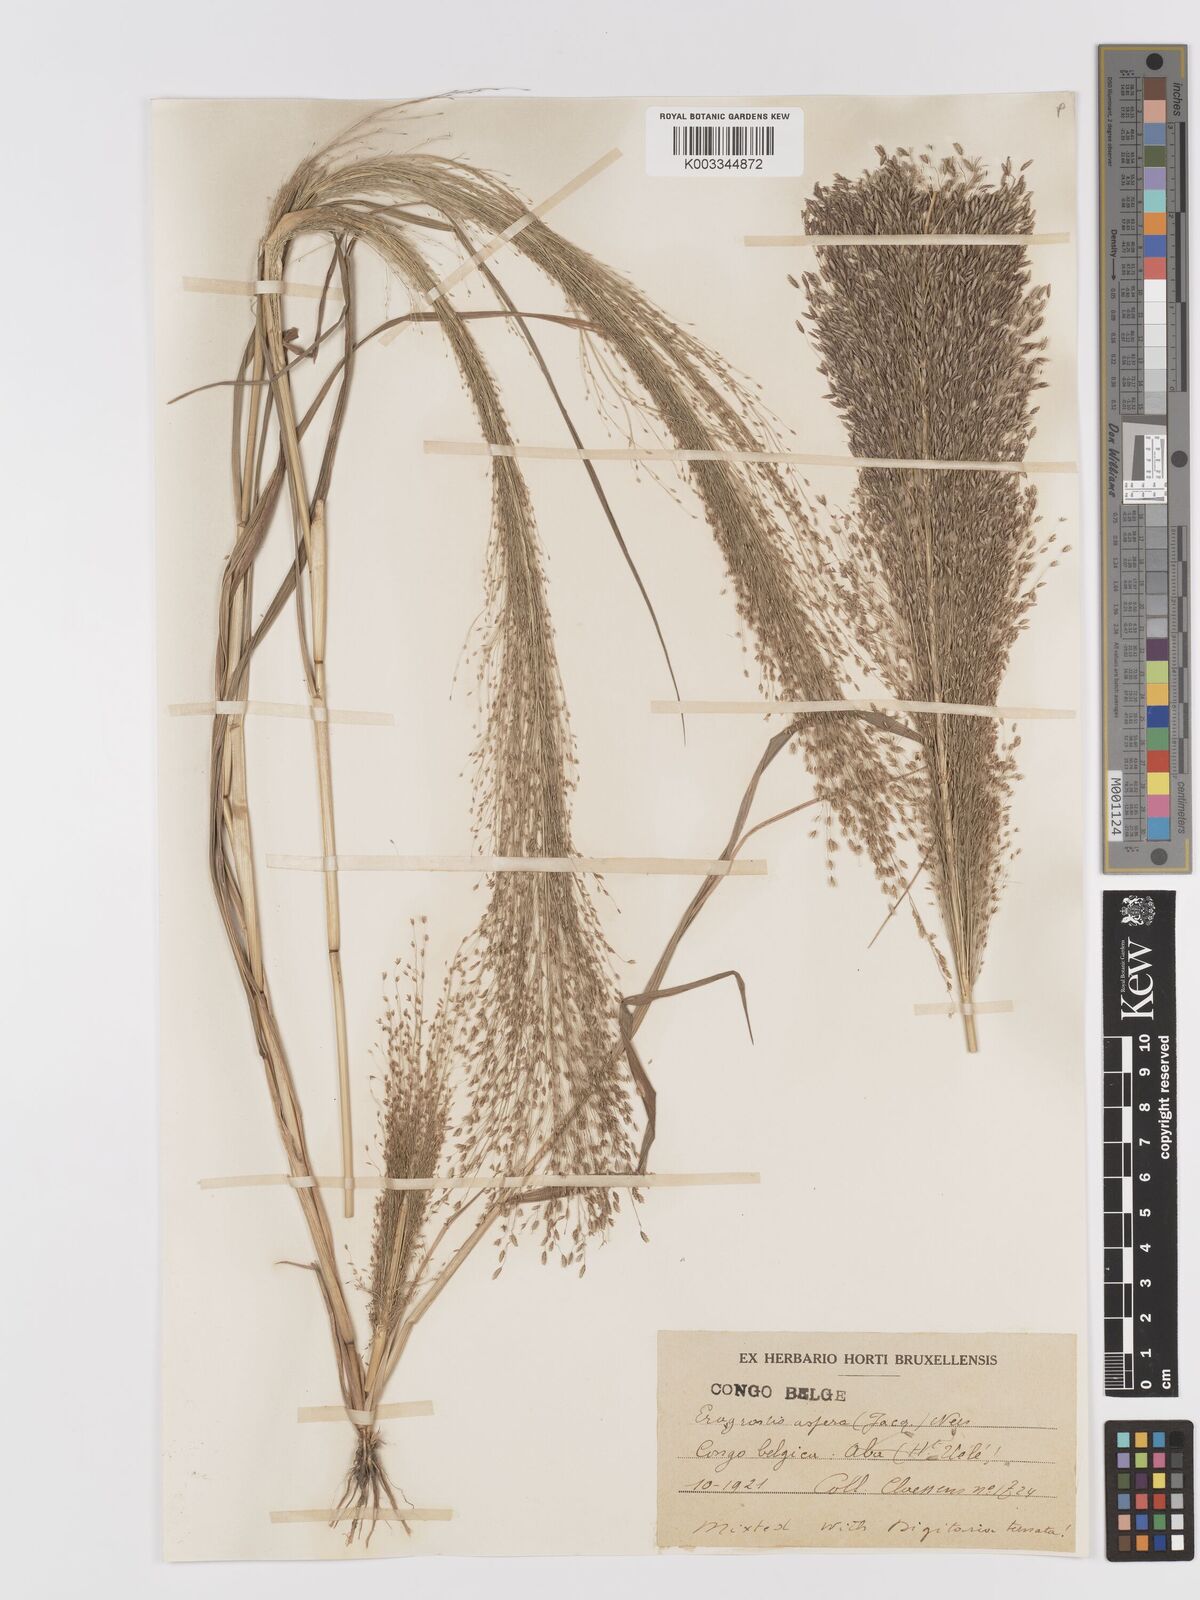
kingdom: Plantae
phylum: Tracheophyta
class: Liliopsida
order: Poales
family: Poaceae
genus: Eragrostis
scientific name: Eragrostis aspera
